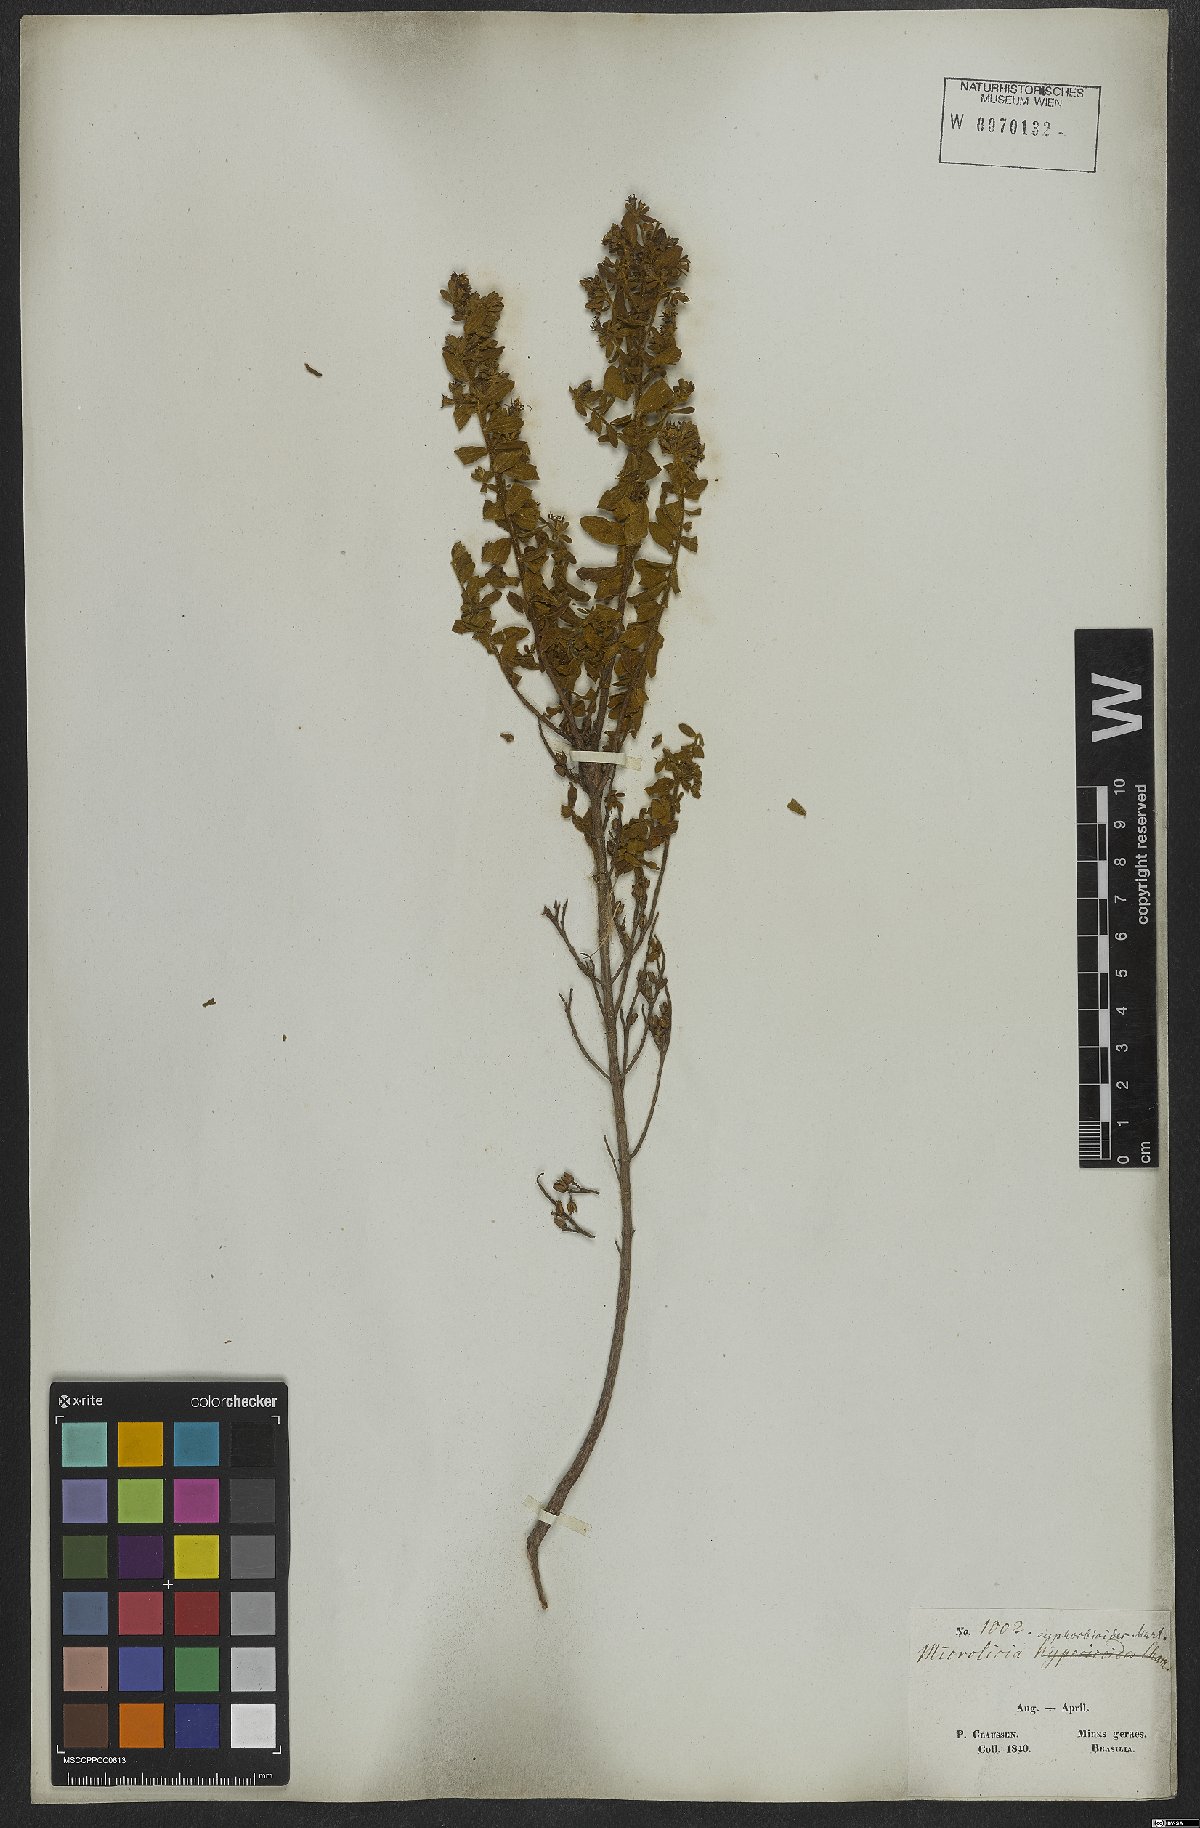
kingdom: Plantae
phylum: Tracheophyta
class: Magnoliopsida
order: Myrtales
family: Melastomataceae
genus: Microlicia
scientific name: Microlicia euphorbioides
